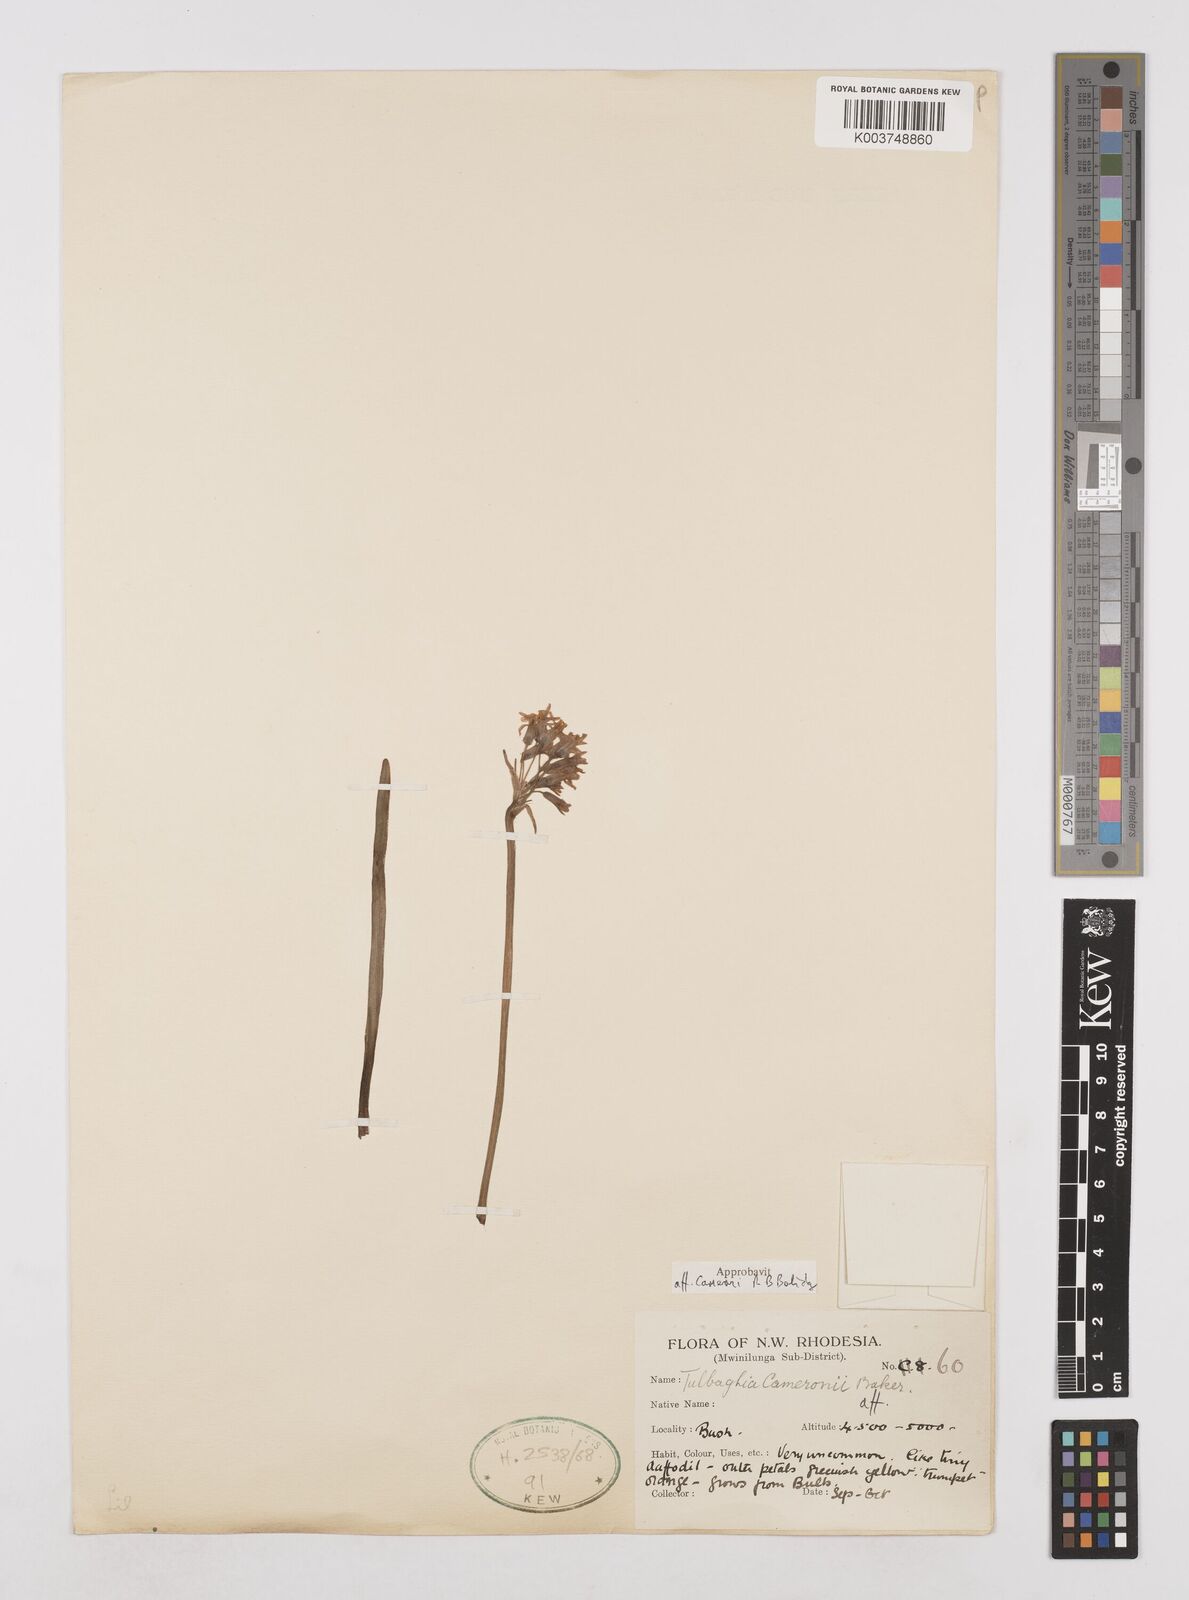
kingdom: Plantae
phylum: Tracheophyta
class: Liliopsida
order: Asparagales
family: Amaryllidaceae
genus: Tulbaghia
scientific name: Tulbaghia cameronii
